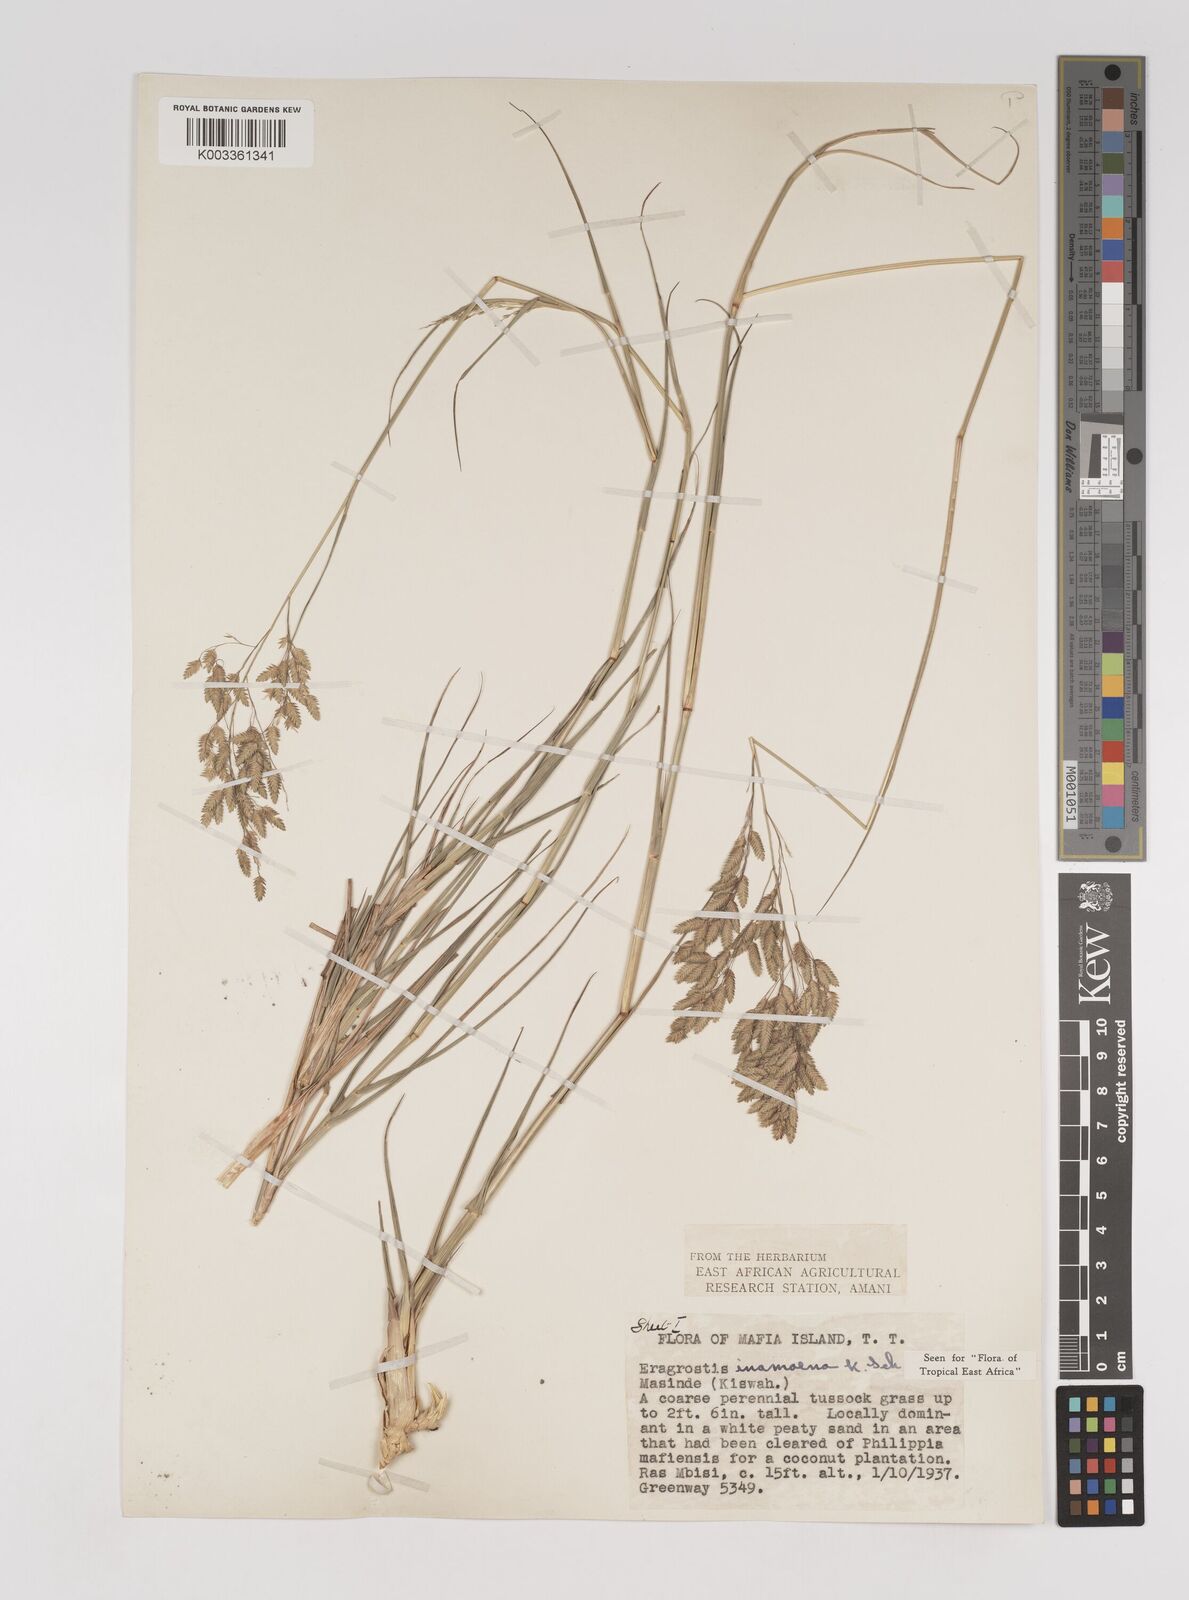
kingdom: Plantae
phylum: Tracheophyta
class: Liliopsida
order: Poales
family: Poaceae
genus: Eragrostis
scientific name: Eragrostis inamoena
